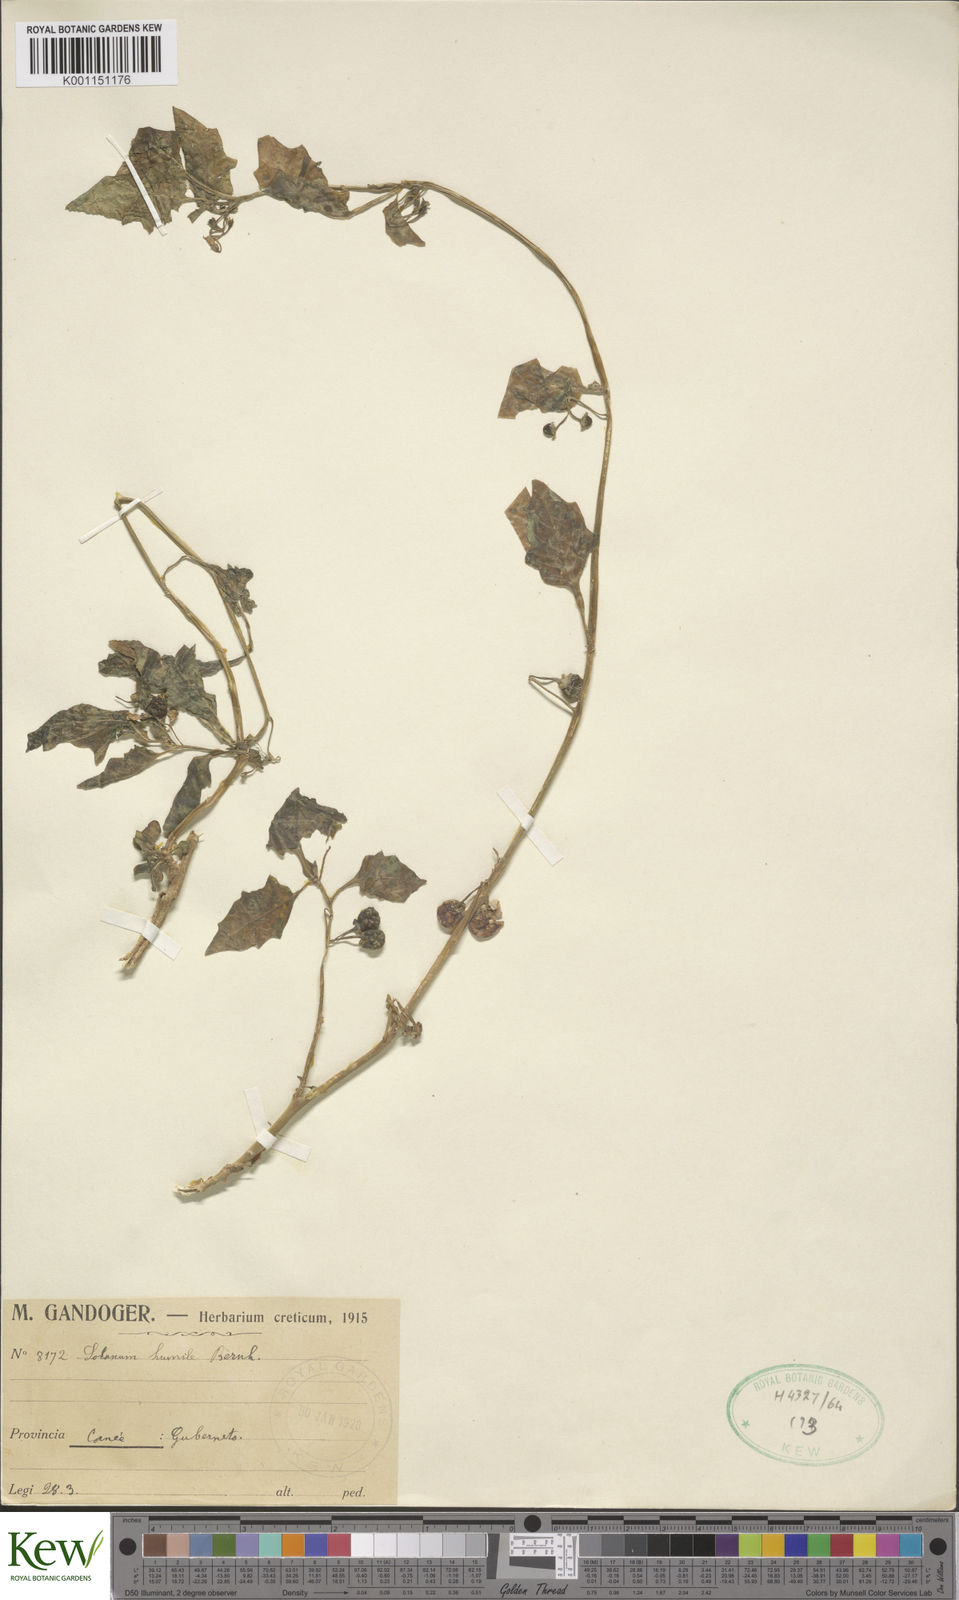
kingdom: Plantae
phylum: Tracheophyta
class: Magnoliopsida
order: Solanales
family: Solanaceae
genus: Solanum
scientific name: Solanum villosum
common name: Red nightshade
